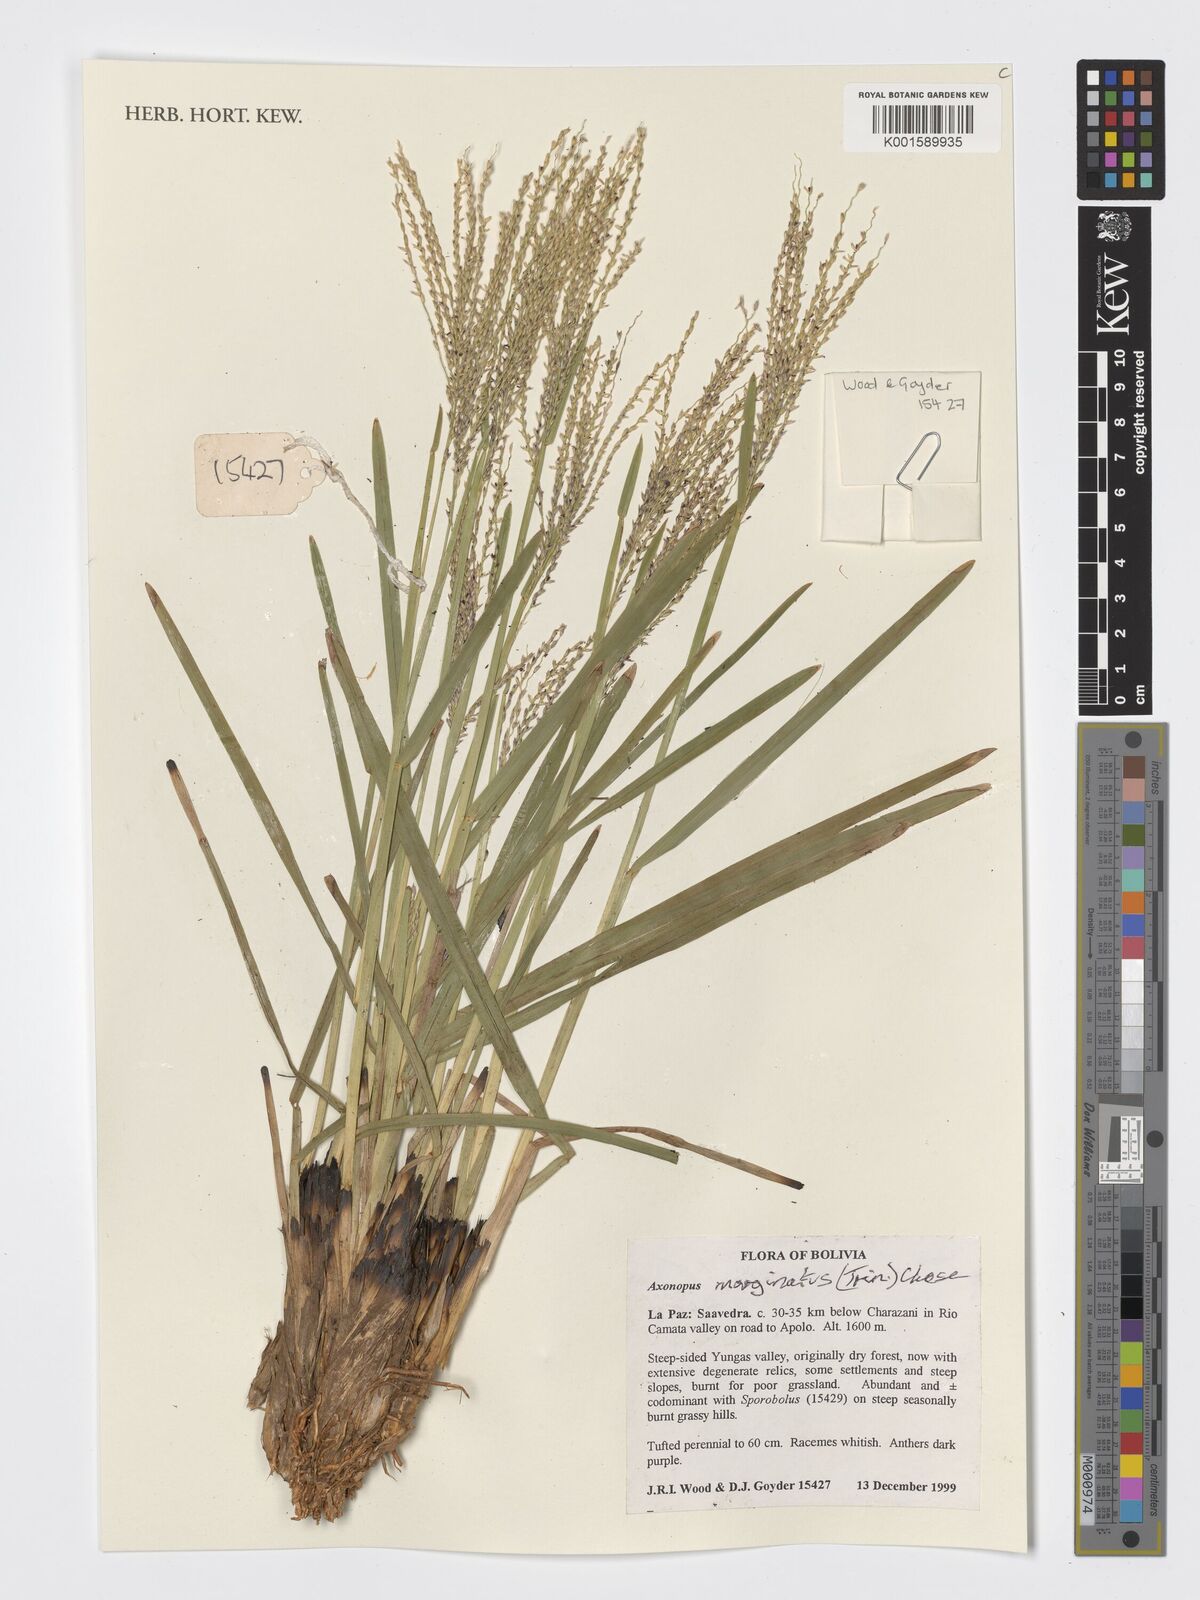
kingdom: Plantae
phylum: Tracheophyta
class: Liliopsida
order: Poales
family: Poaceae
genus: Axonopus
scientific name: Axonopus marginatus
